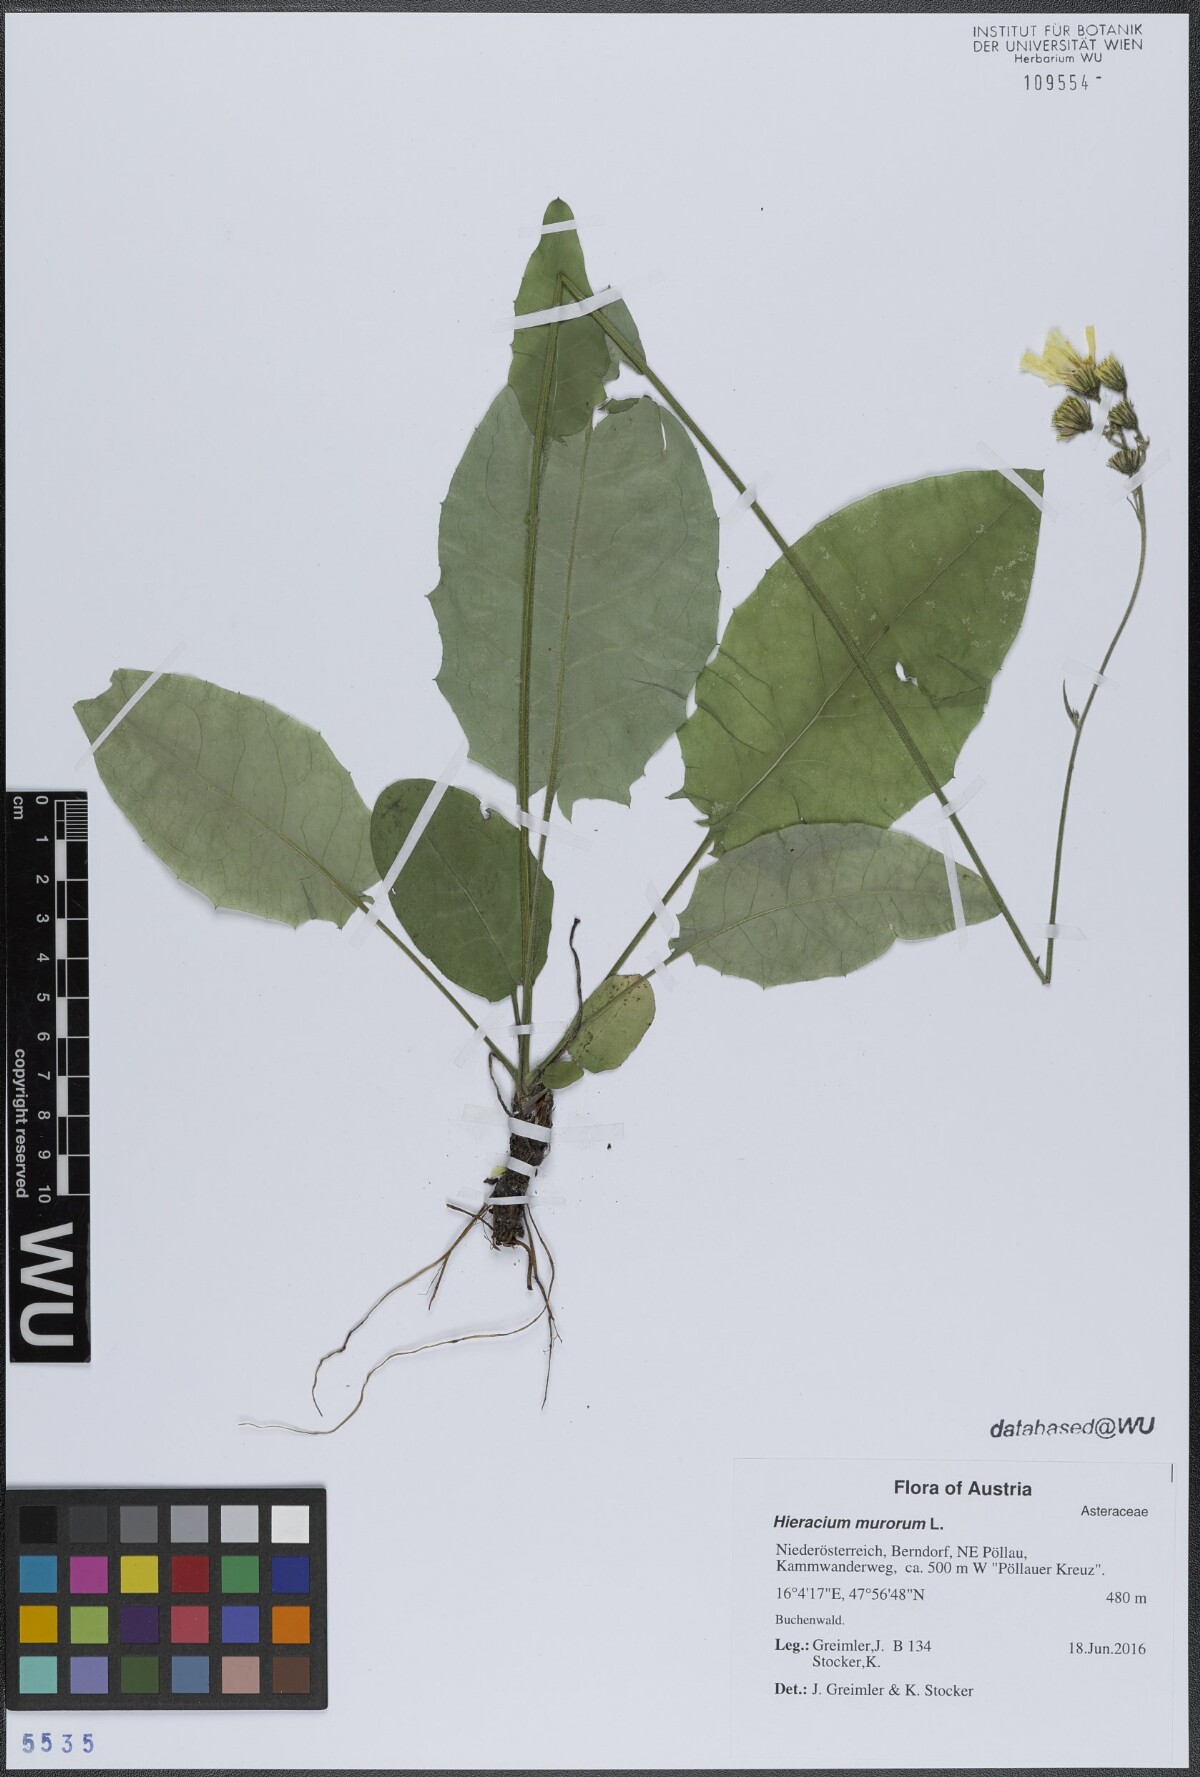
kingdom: Plantae
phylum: Tracheophyta
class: Magnoliopsida
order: Asterales
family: Asteraceae
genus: Hieracium
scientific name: Hieracium murorum
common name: Wall hawkweed
